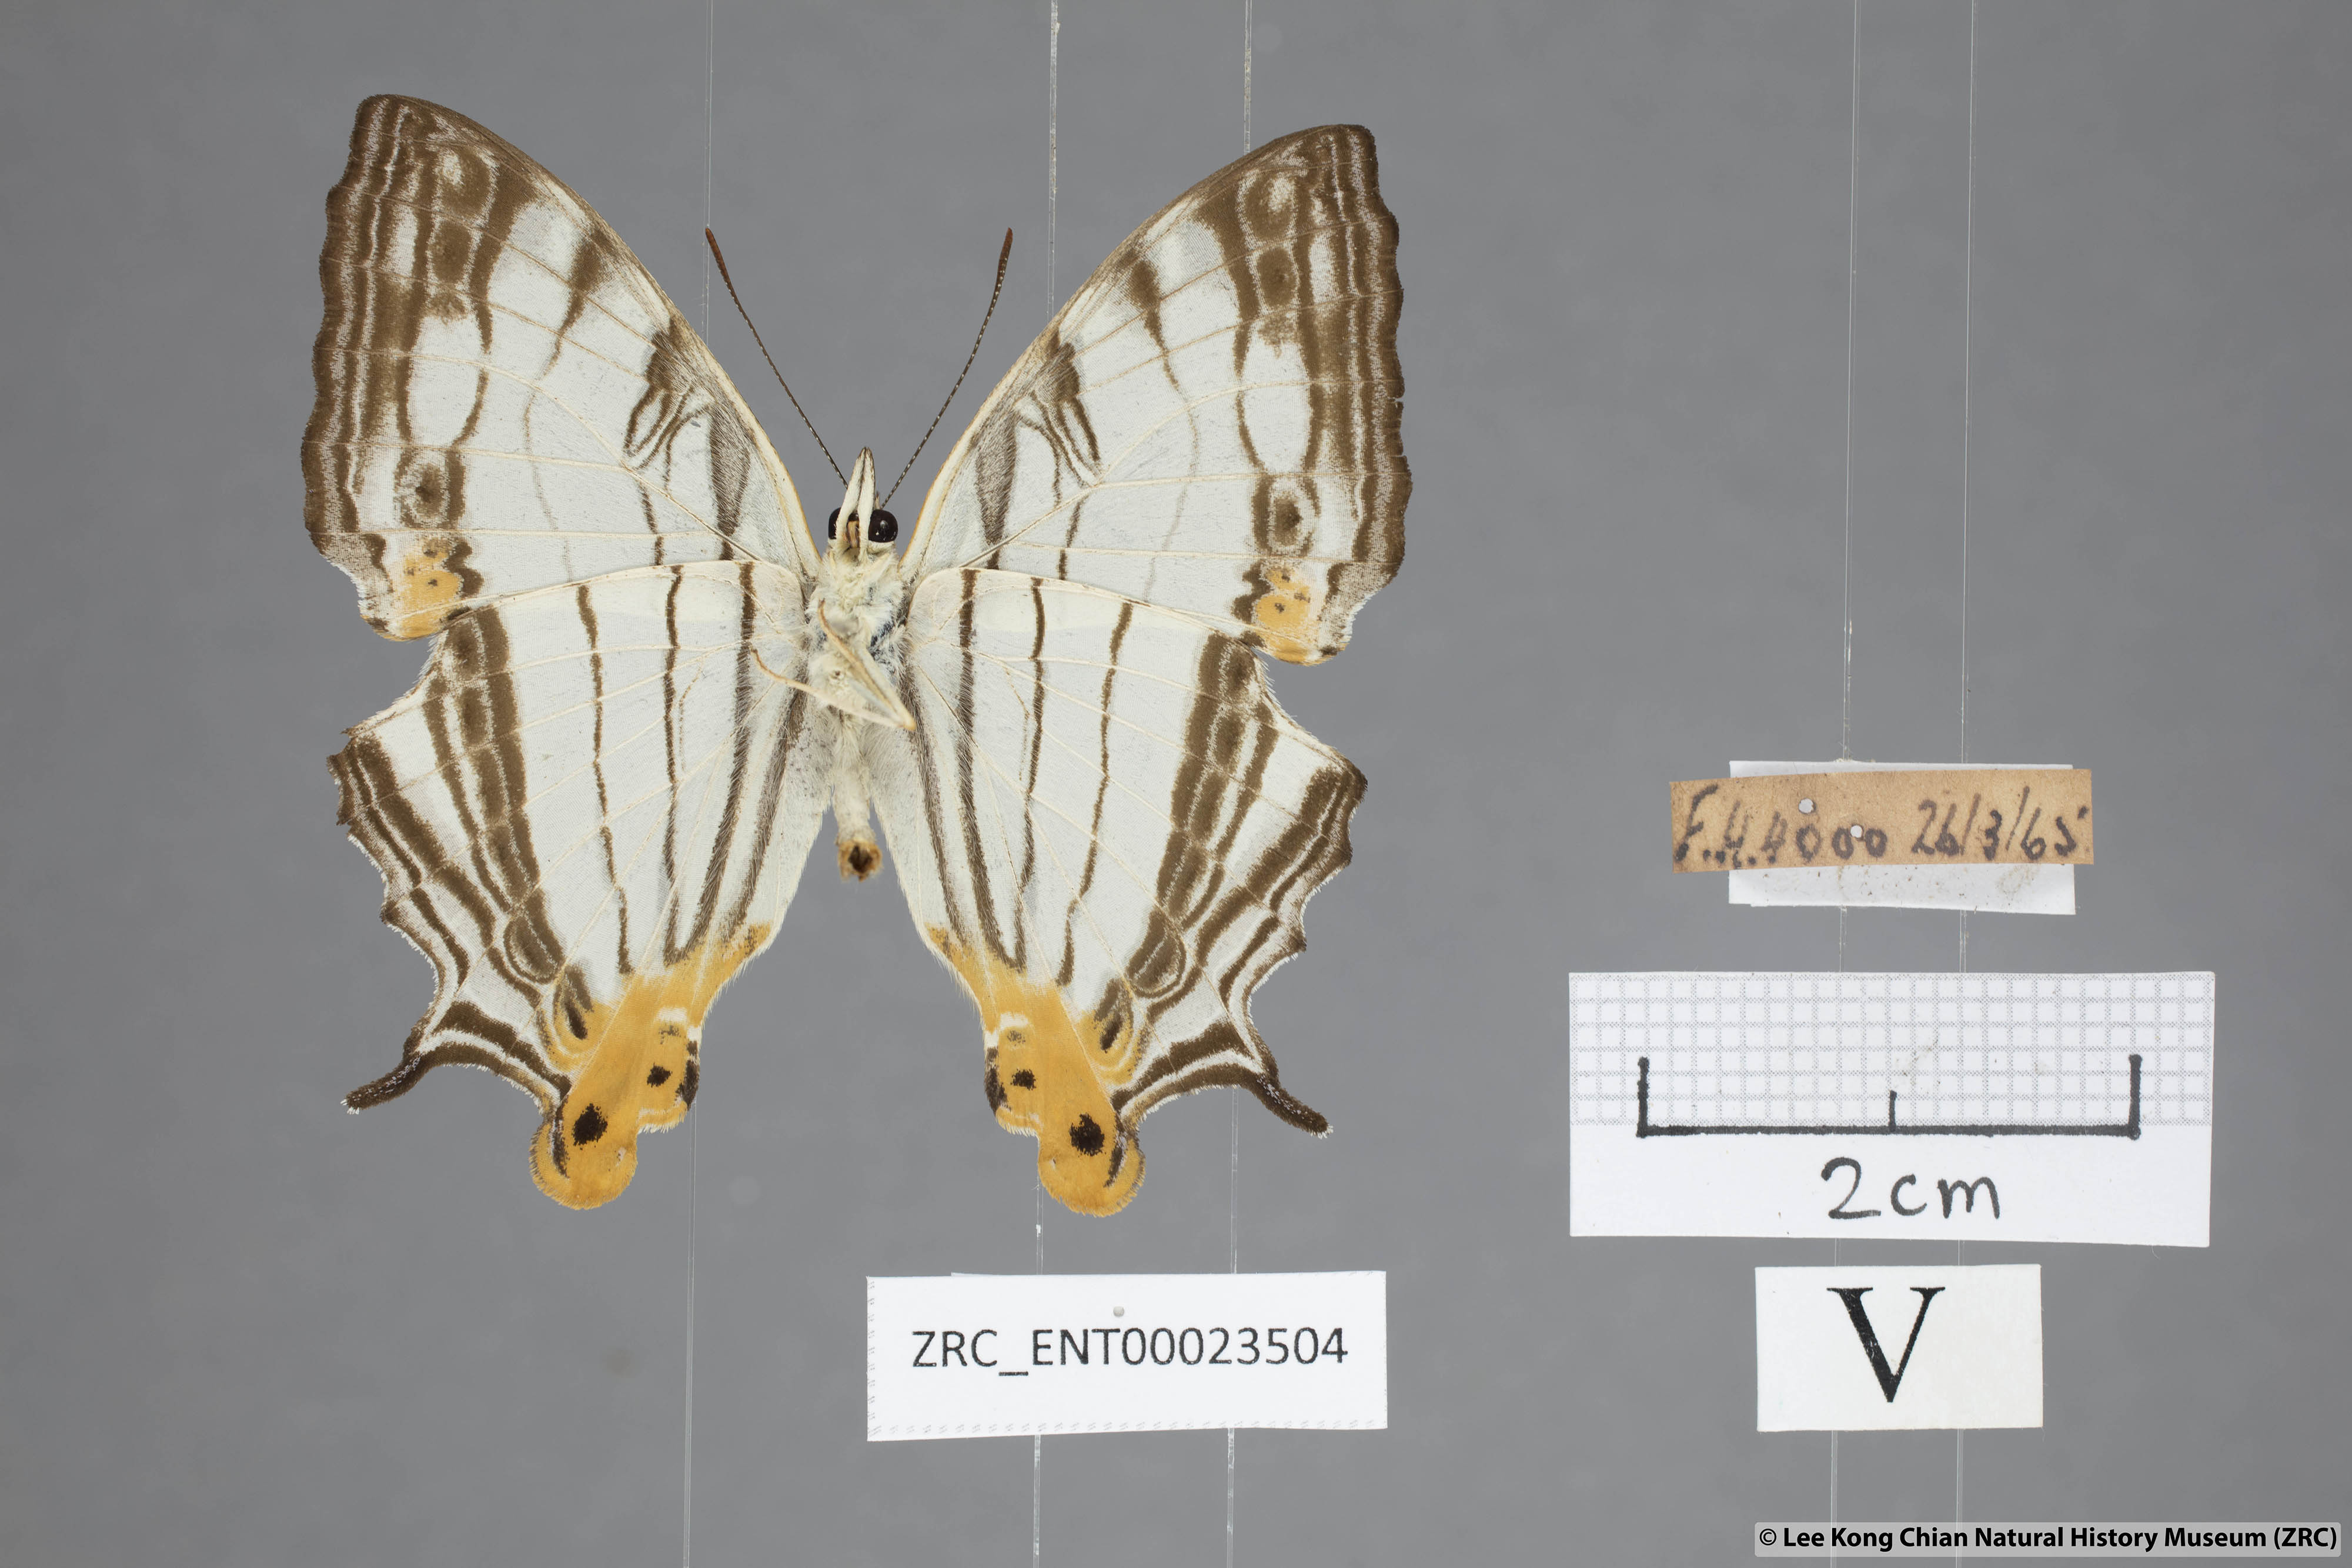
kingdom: Animalia
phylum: Arthropoda
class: Insecta
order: Lepidoptera
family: Nymphalidae
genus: Cyrestis
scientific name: Cyrestis maenalis
